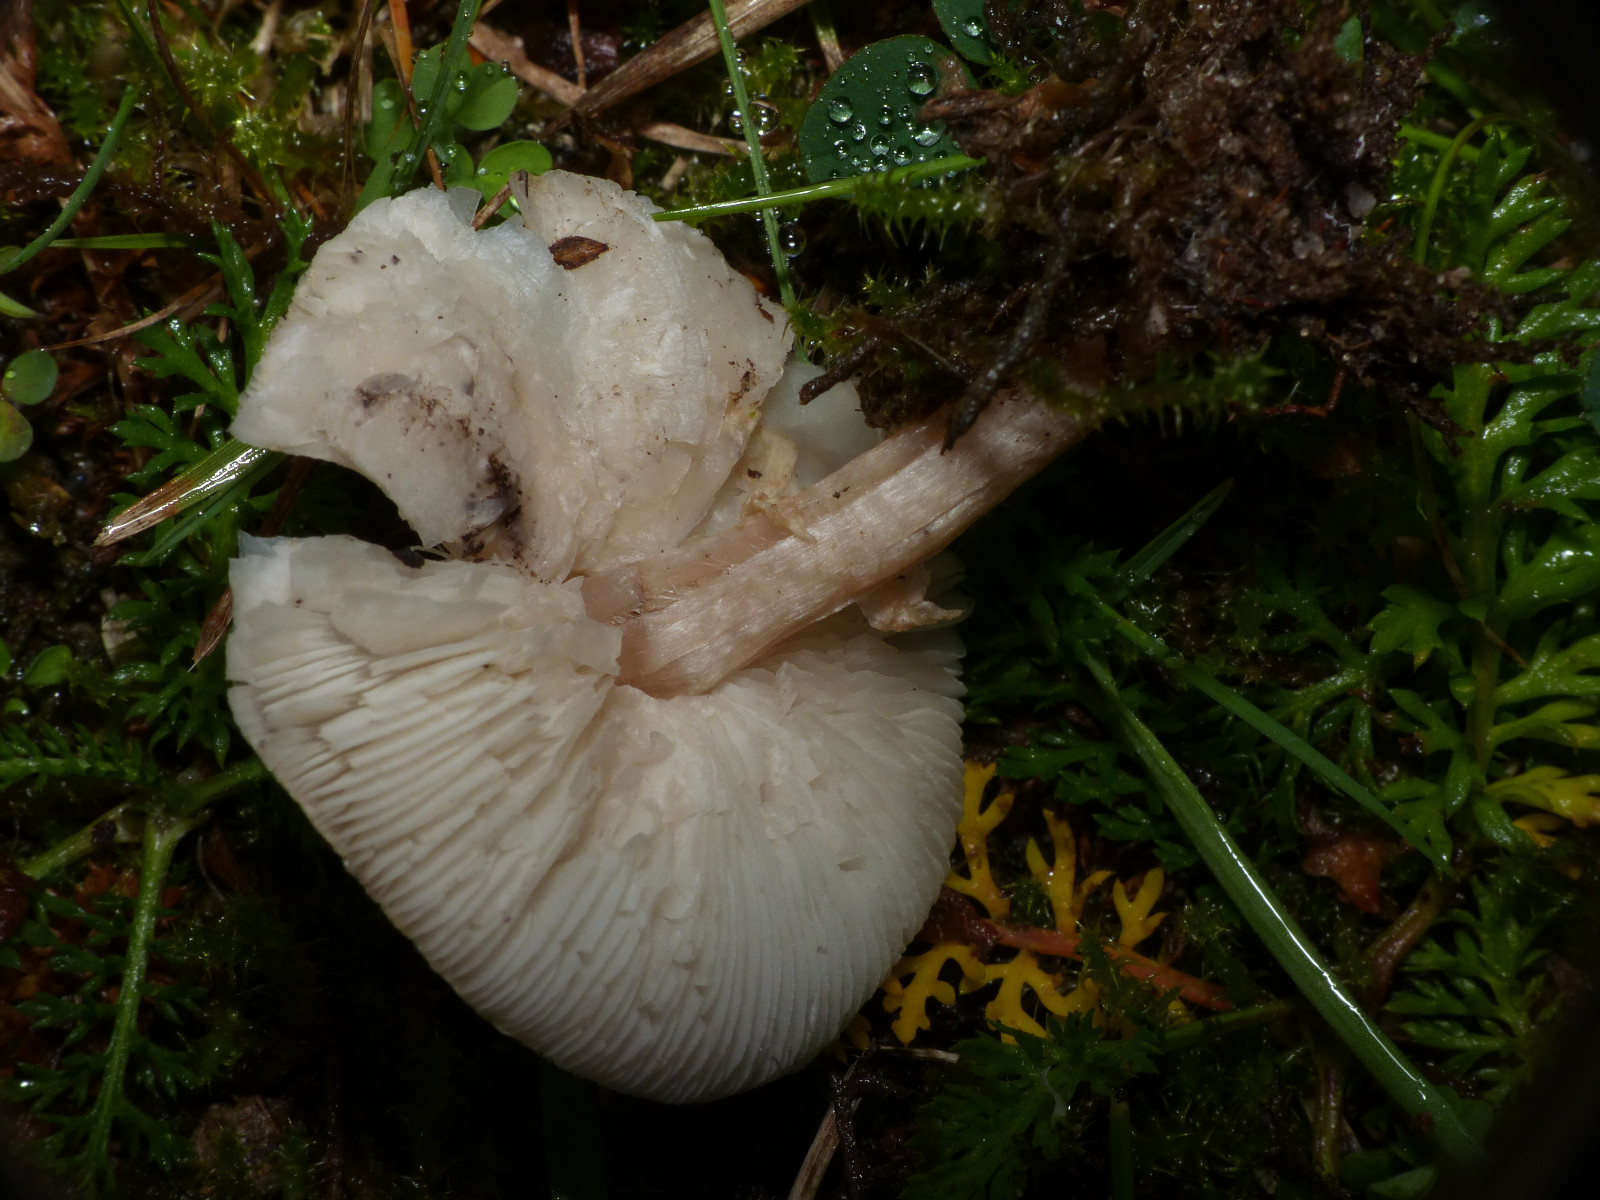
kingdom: Fungi
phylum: Basidiomycota
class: Agaricomycetes
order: Agaricales
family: Agaricaceae
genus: Lepiota
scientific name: Lepiota cristata
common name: stinkende parasolhat
